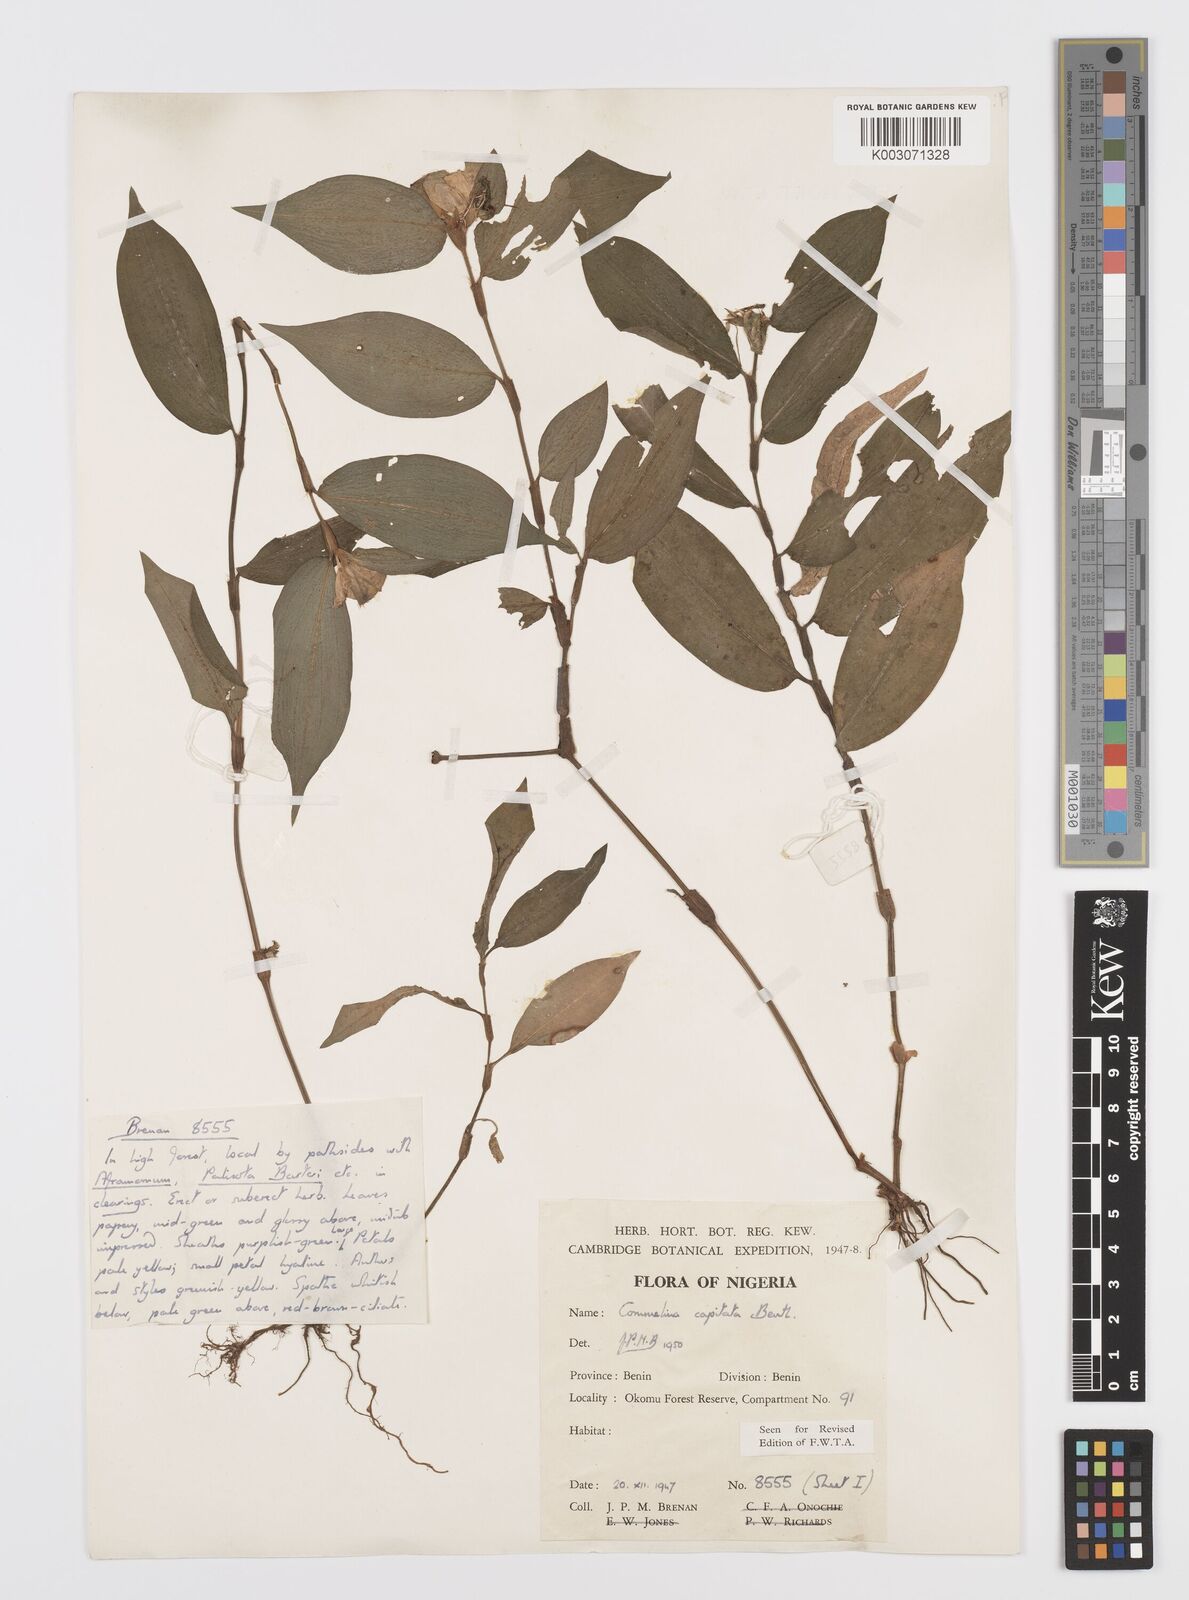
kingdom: Plantae
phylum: Tracheophyta
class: Liliopsida
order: Commelinales
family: Commelinaceae
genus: Commelina
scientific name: Commelina capitata
